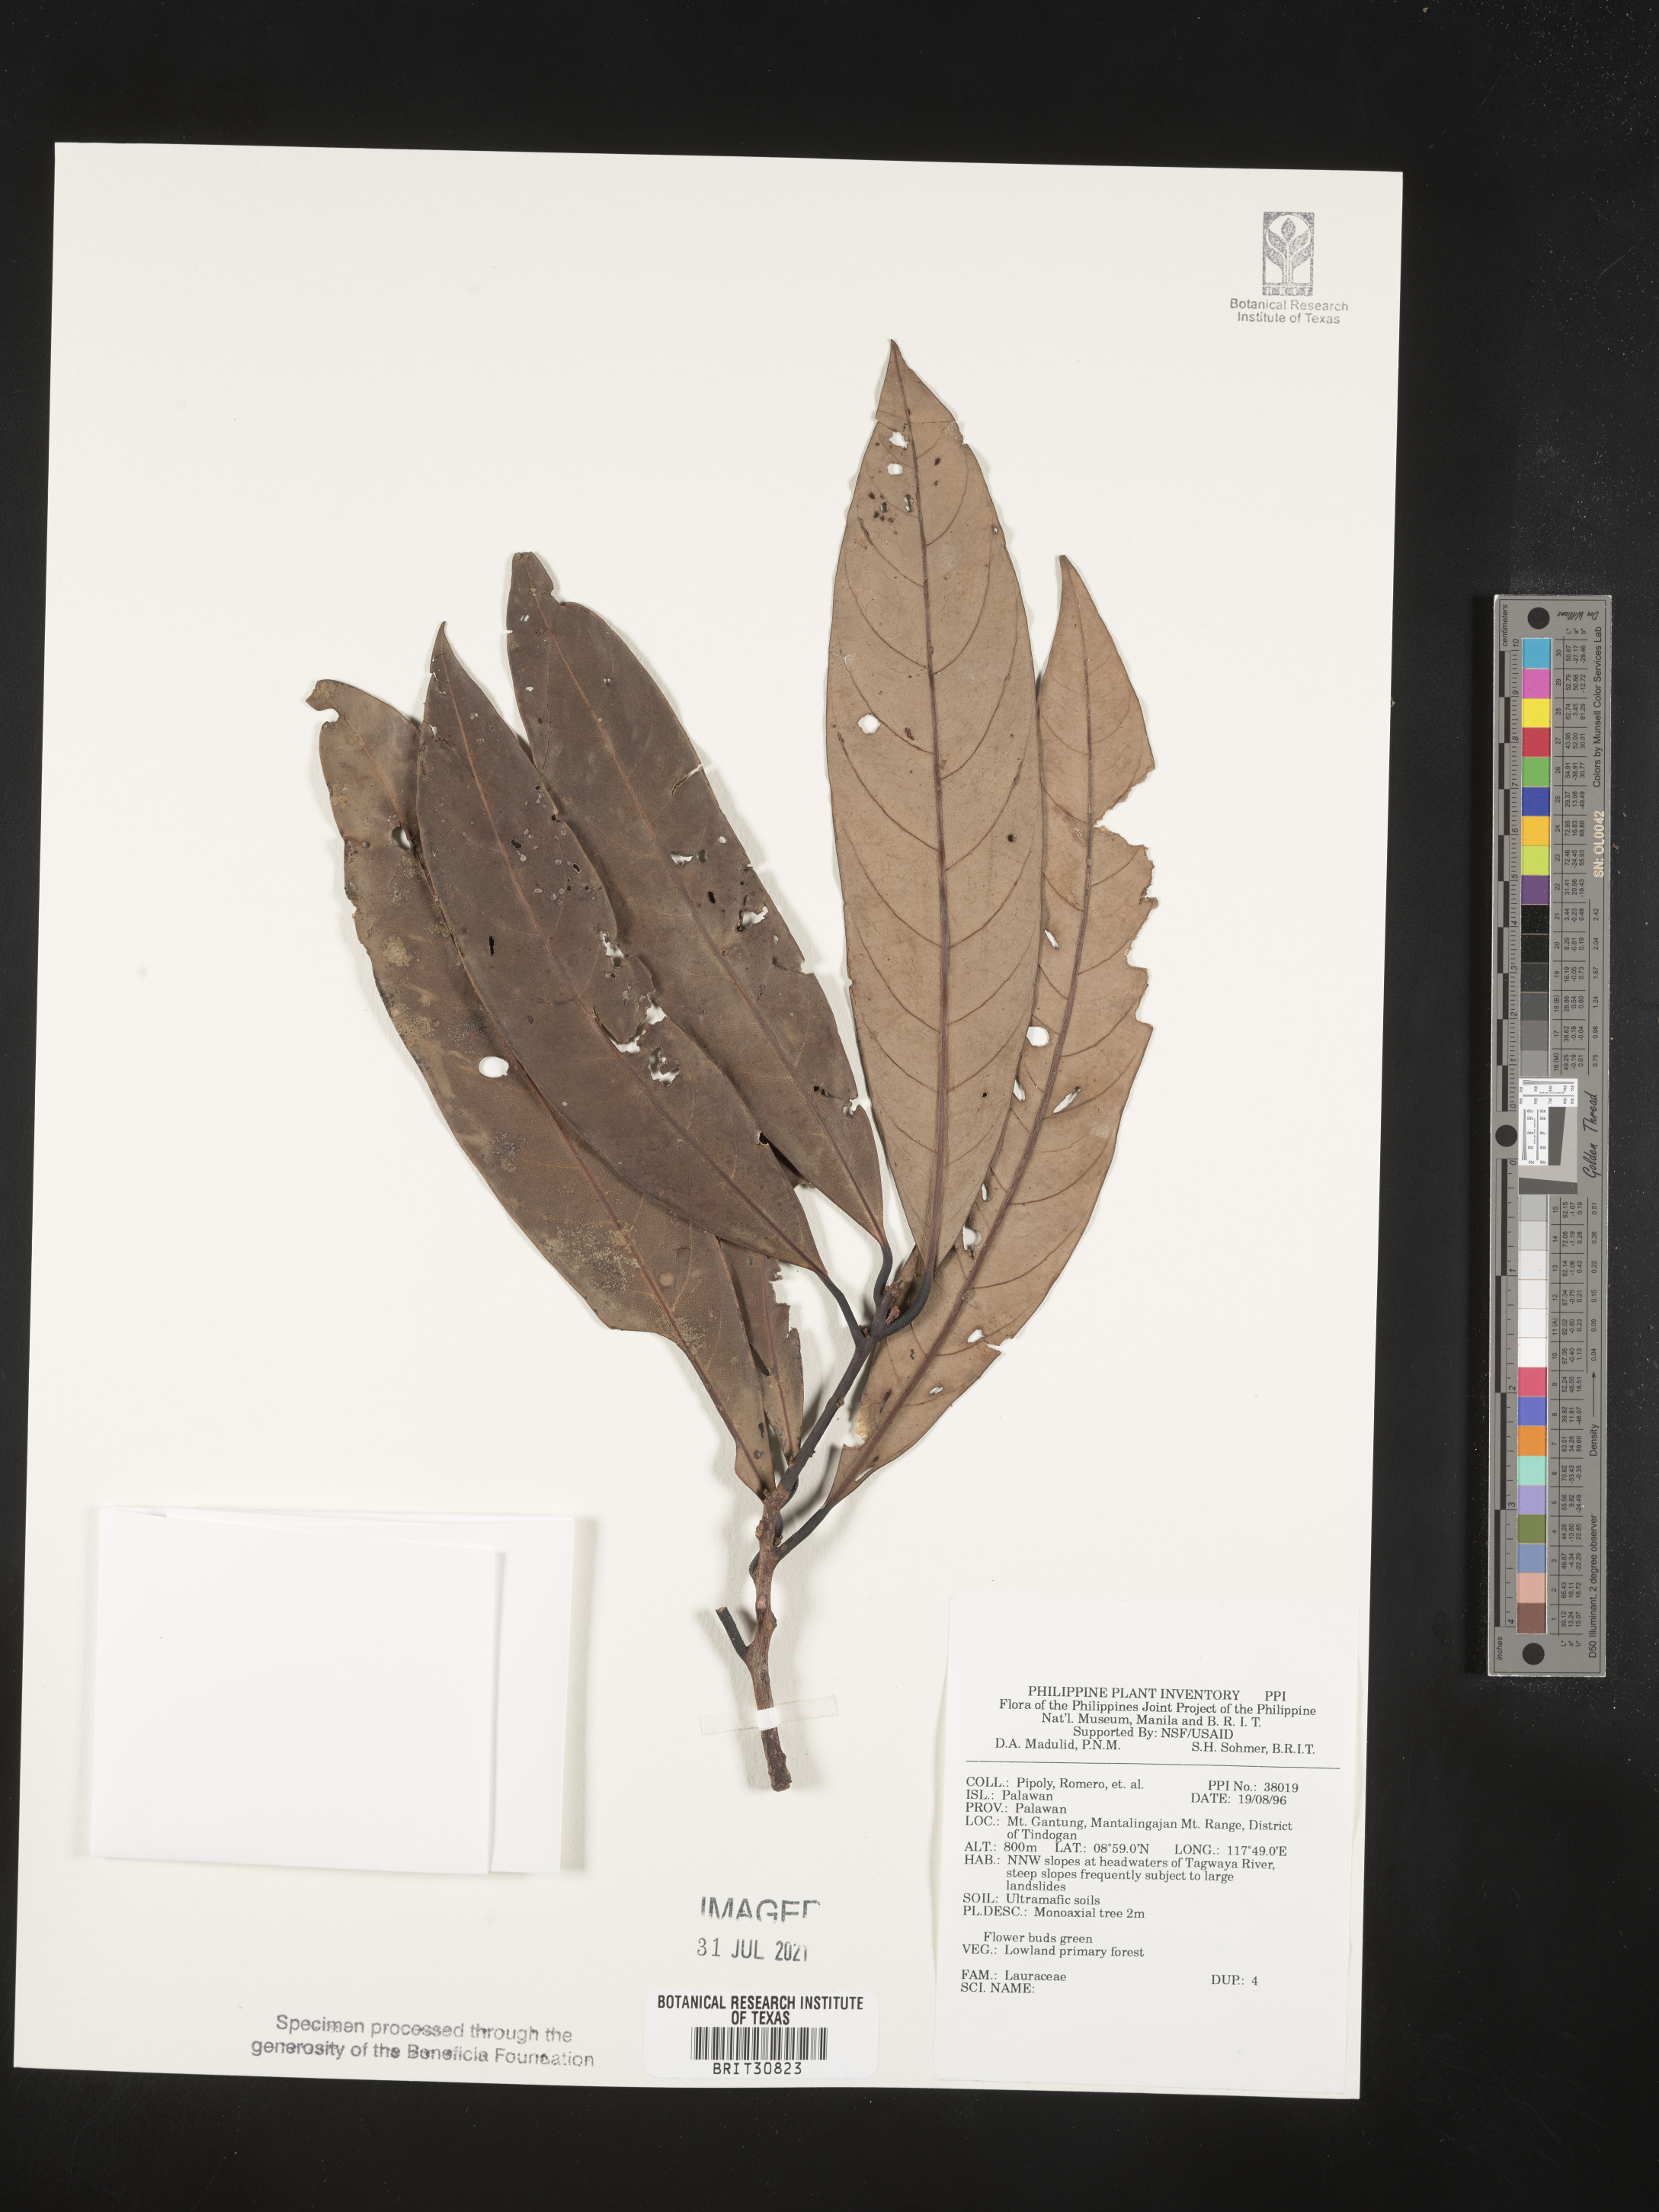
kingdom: Plantae
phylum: Tracheophyta
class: Magnoliopsida
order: Laurales
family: Lauraceae
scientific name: Lauraceae
